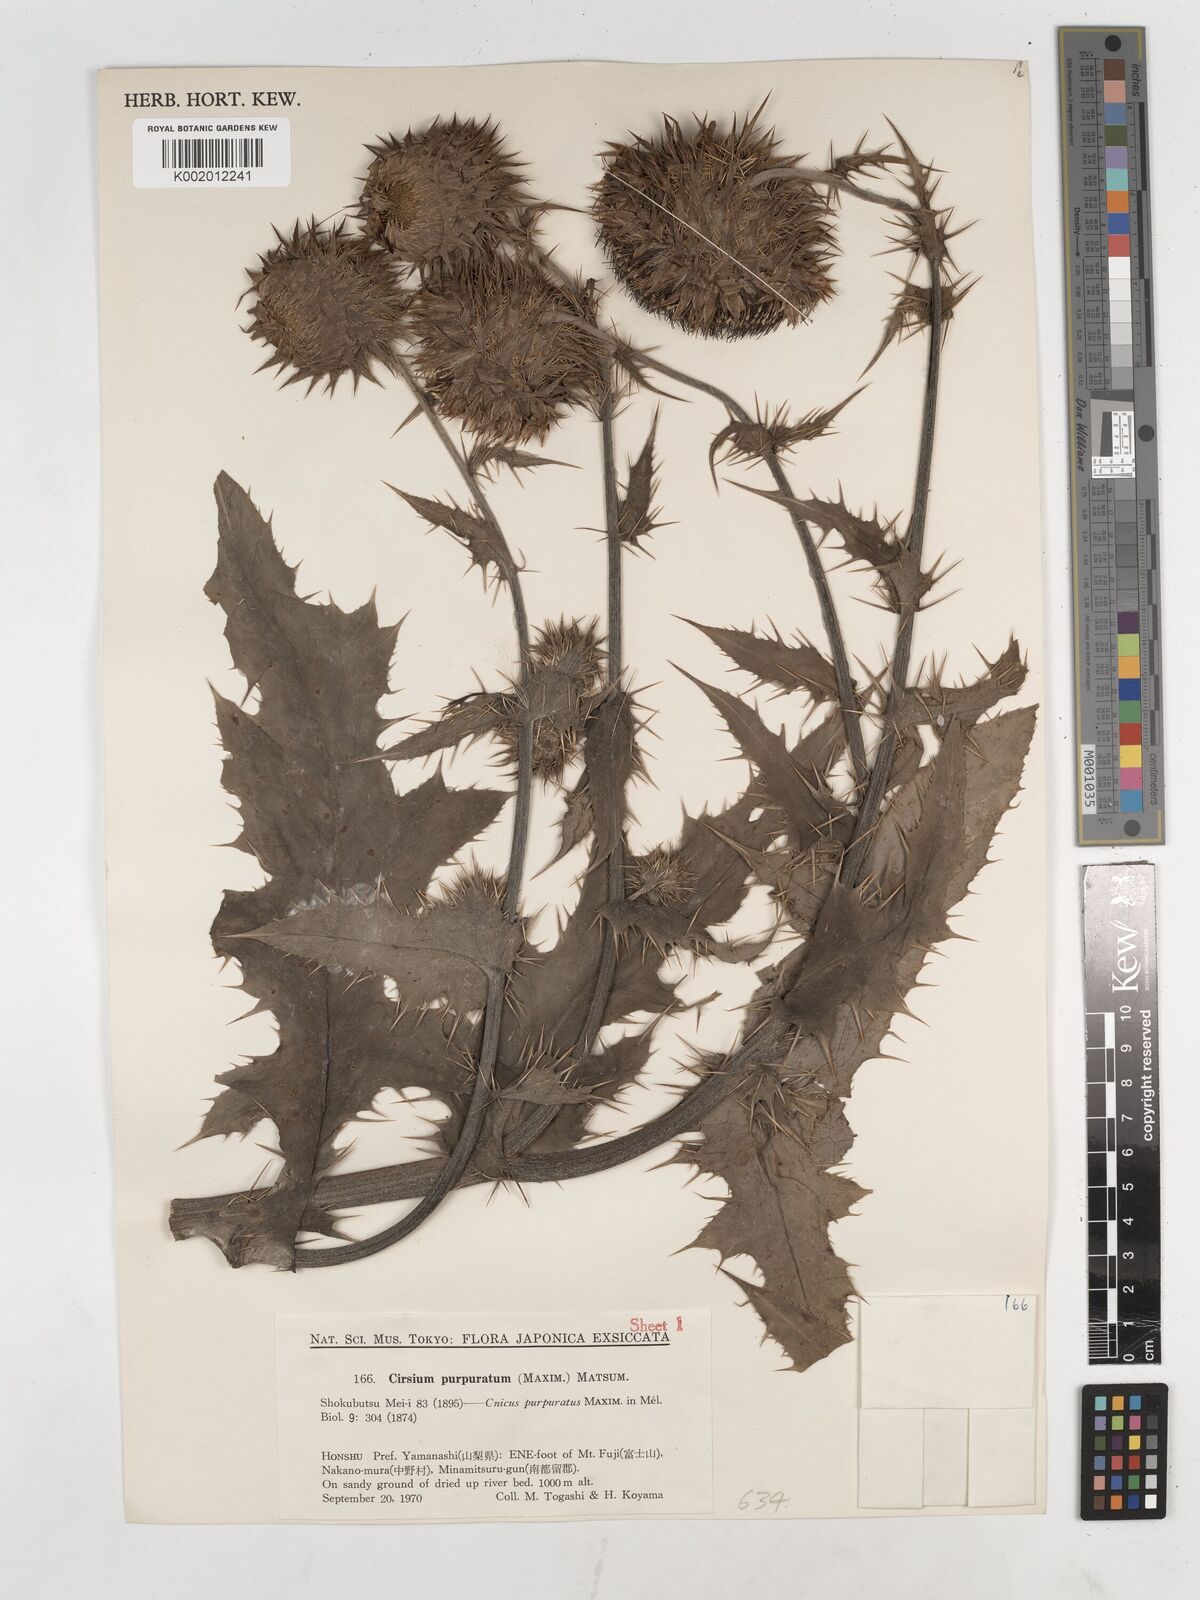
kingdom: Plantae
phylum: Tracheophyta
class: Magnoliopsida
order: Asterales
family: Asteraceae
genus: Cirsium
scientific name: Cirsium purpuratum
